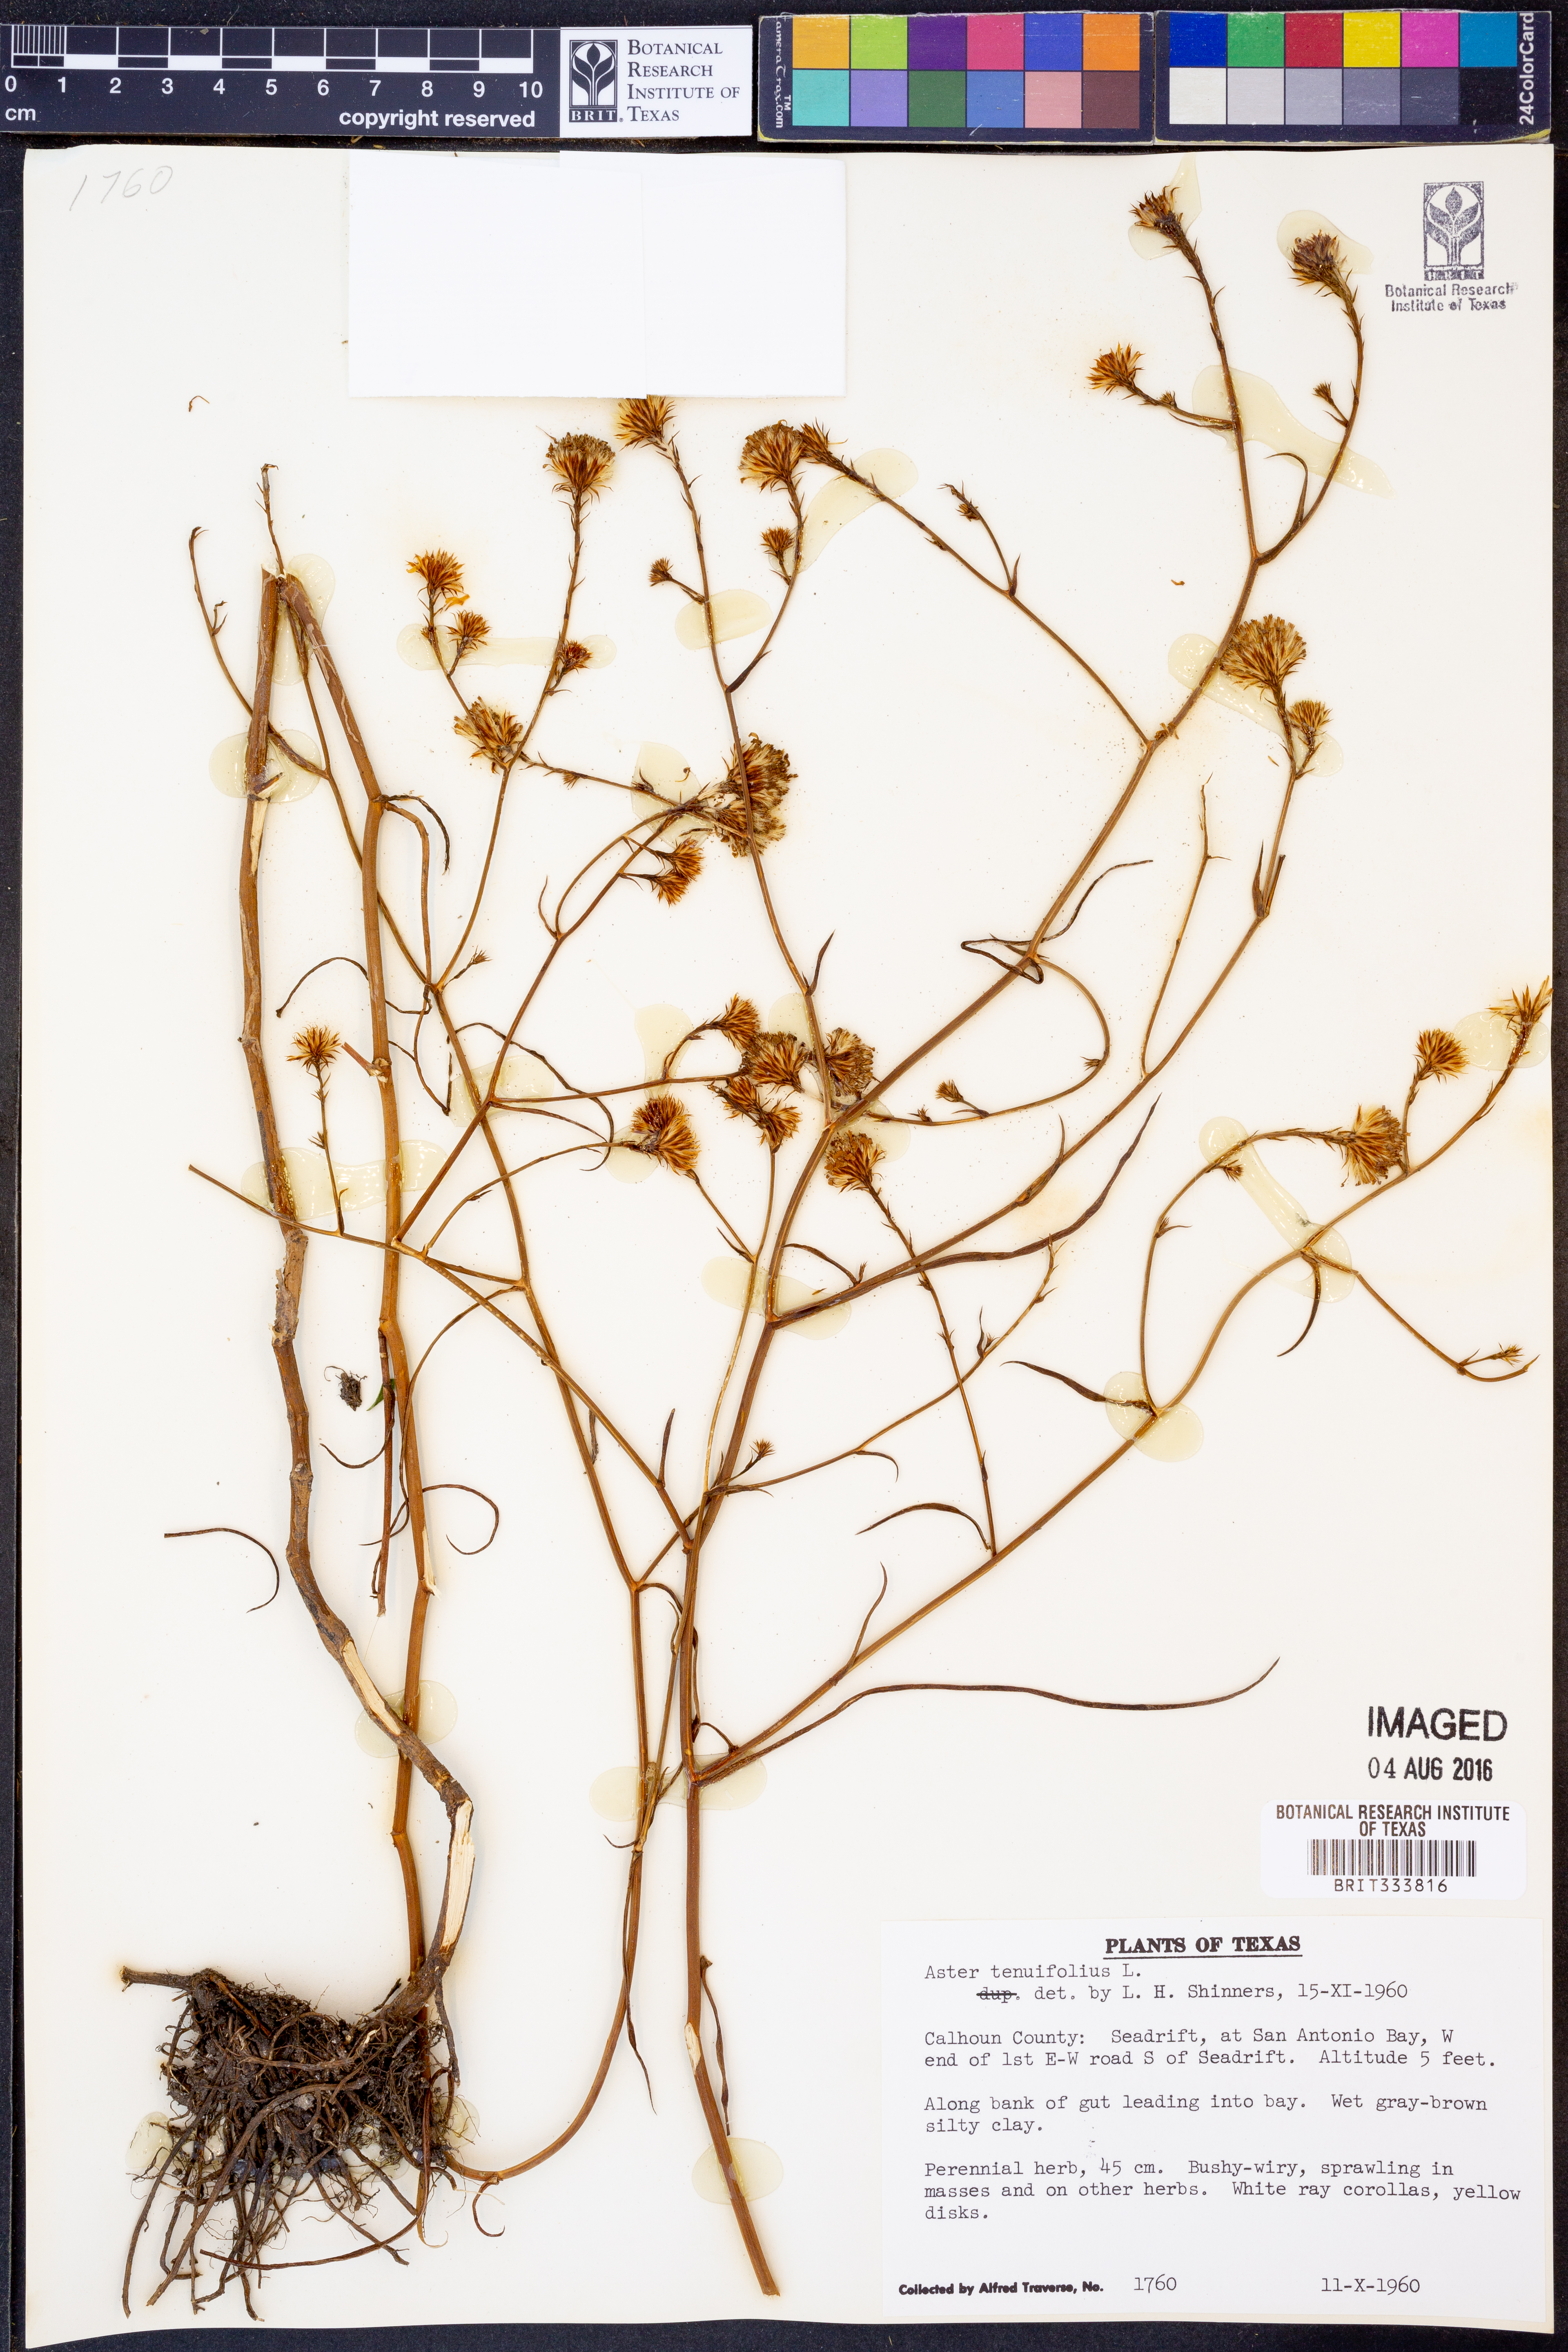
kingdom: Plantae
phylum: Tracheophyta
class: Magnoliopsida
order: Asterales
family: Asteraceae
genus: Symphyotrichum
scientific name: Symphyotrichum tenuifolium
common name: Perennial salt-marsh aster
